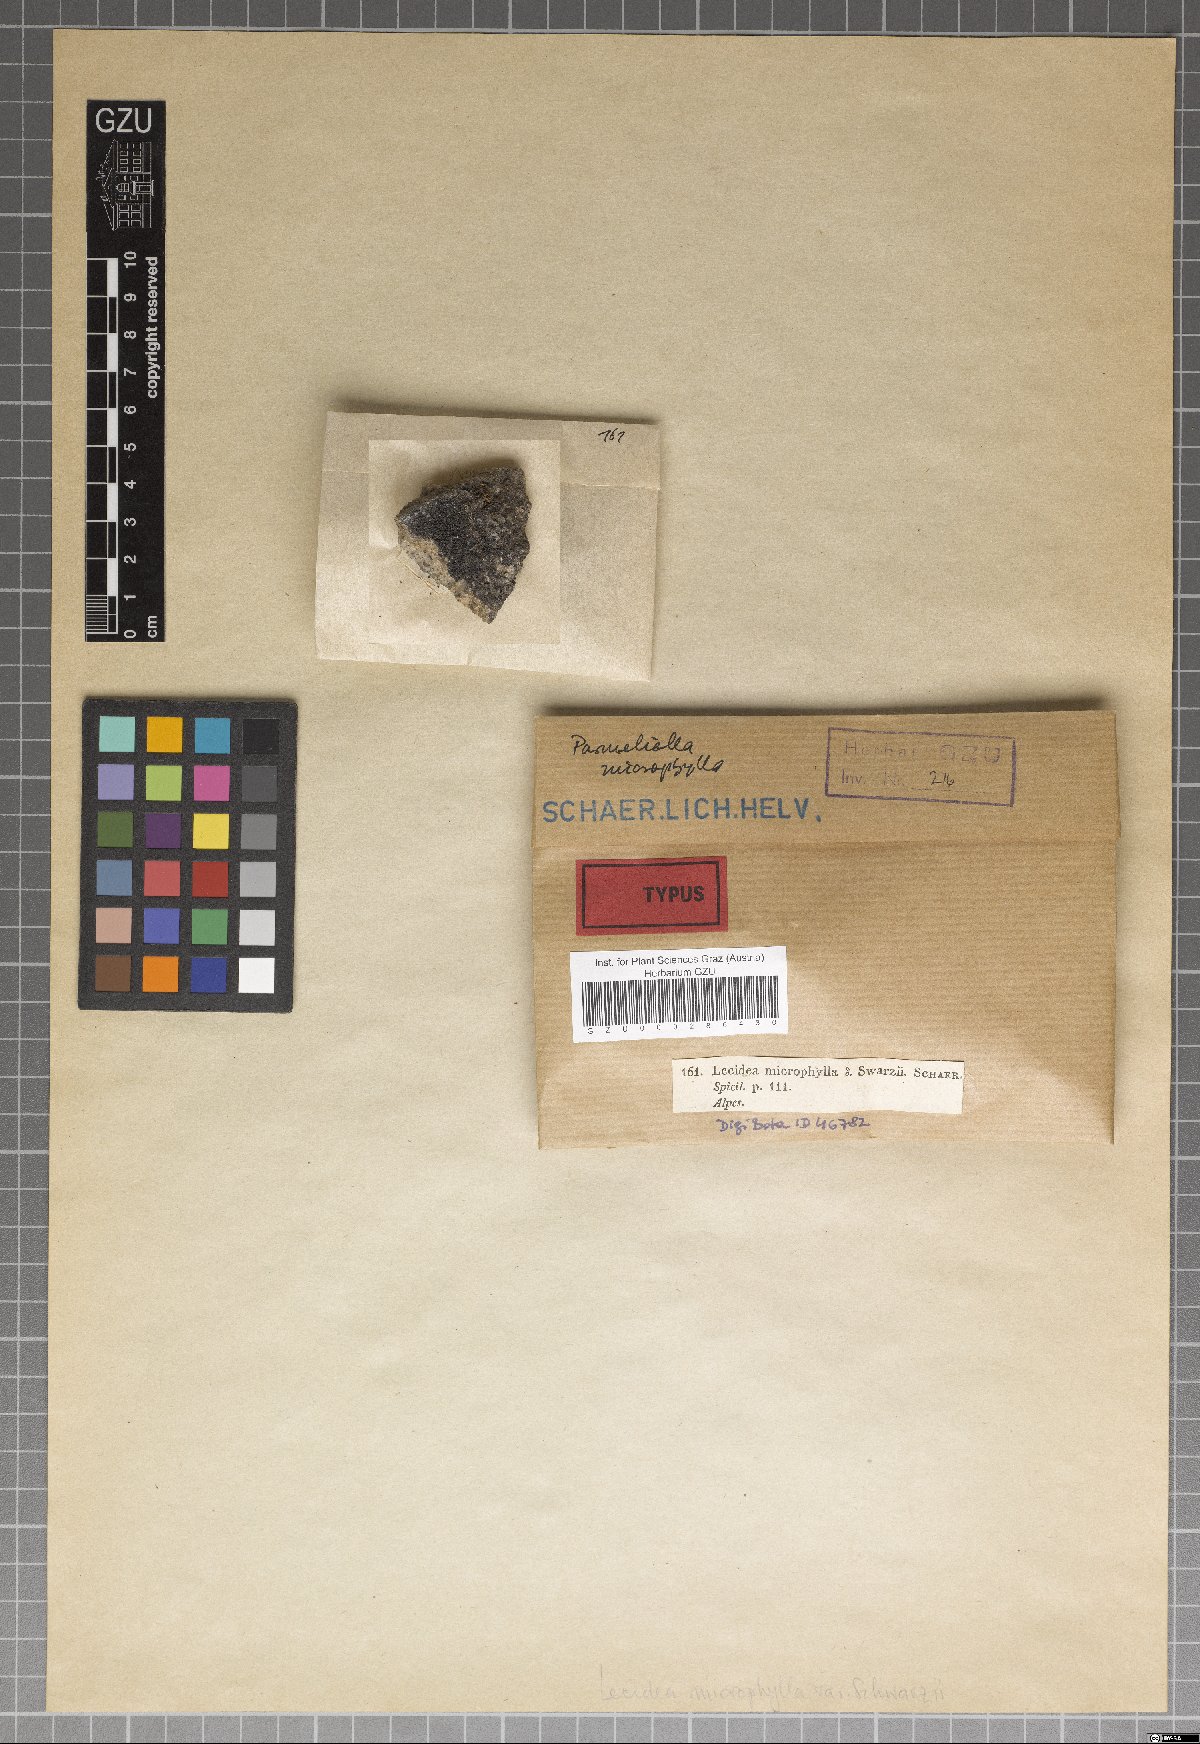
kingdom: Fungi
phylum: Ascomycota
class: Lecanoromycetes
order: Lecideales
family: Lecideaceae
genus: Lecidea
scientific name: Lecidea microphaea
